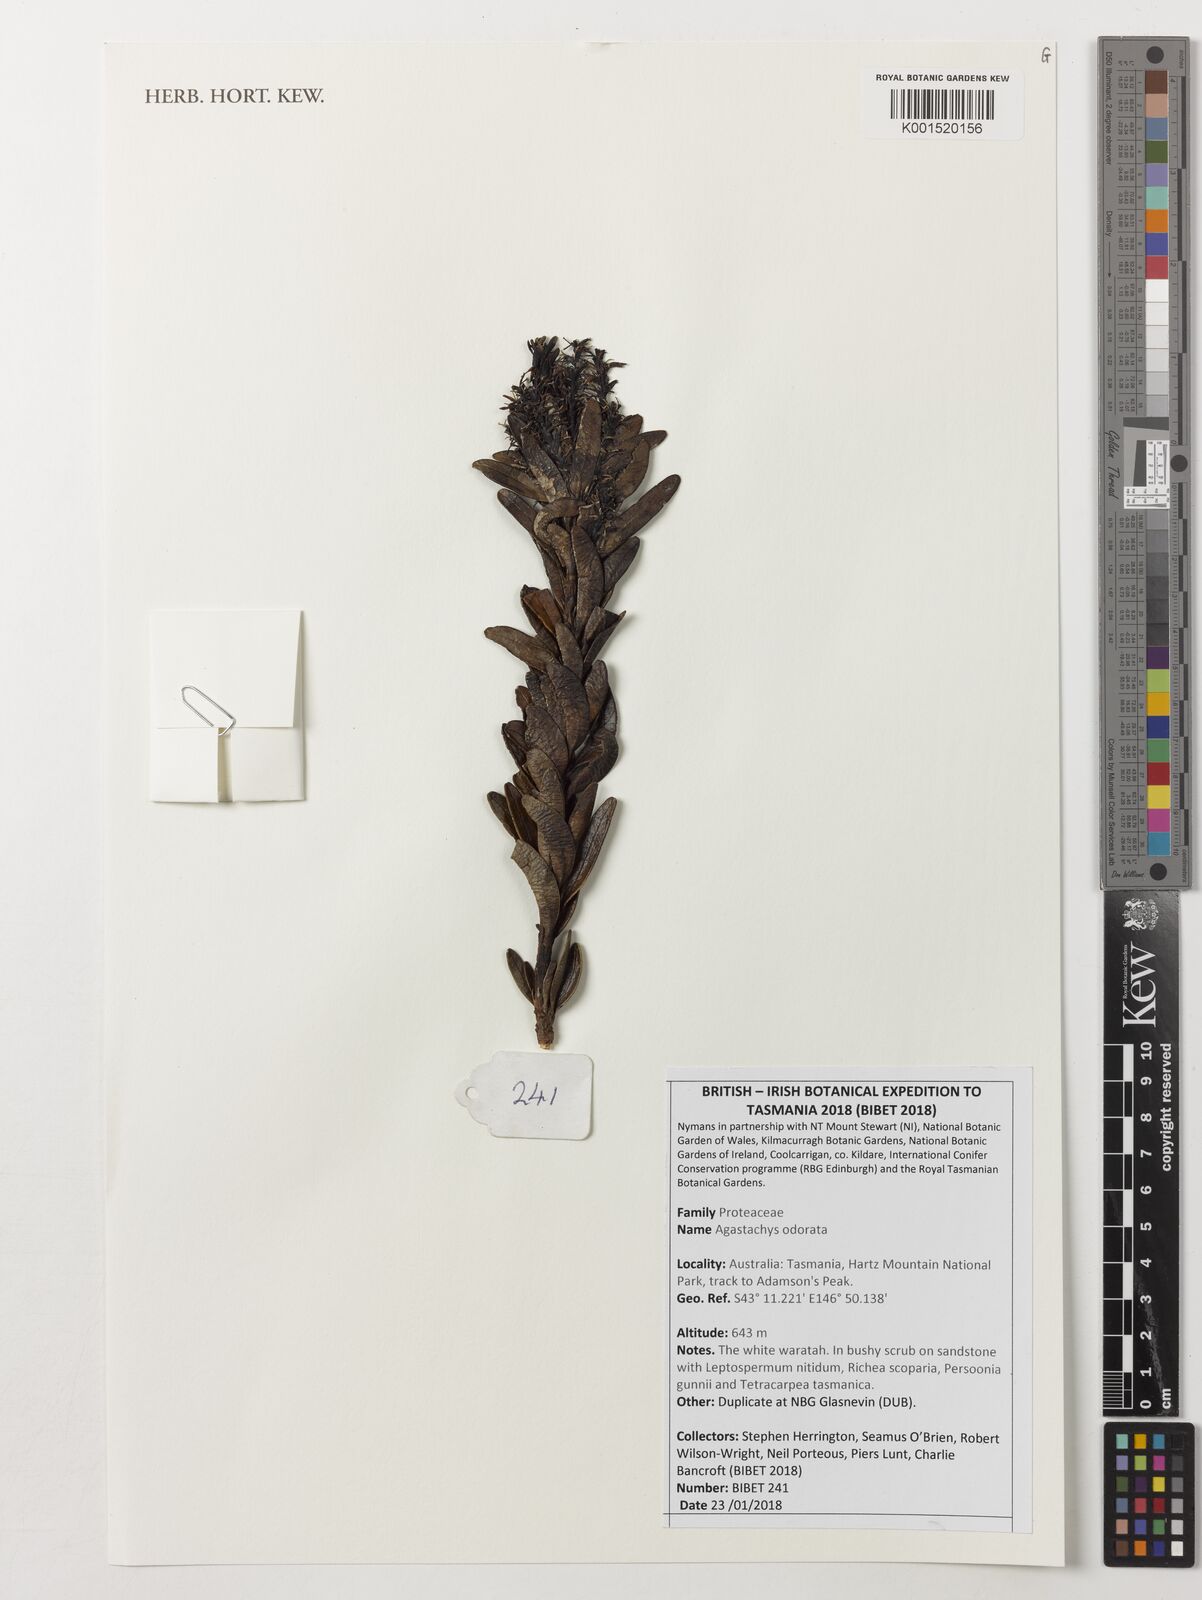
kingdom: Plantae
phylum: Tracheophyta
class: Magnoliopsida
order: Proteales
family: Proteaceae
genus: Agastachys
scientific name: Agastachys odorata
